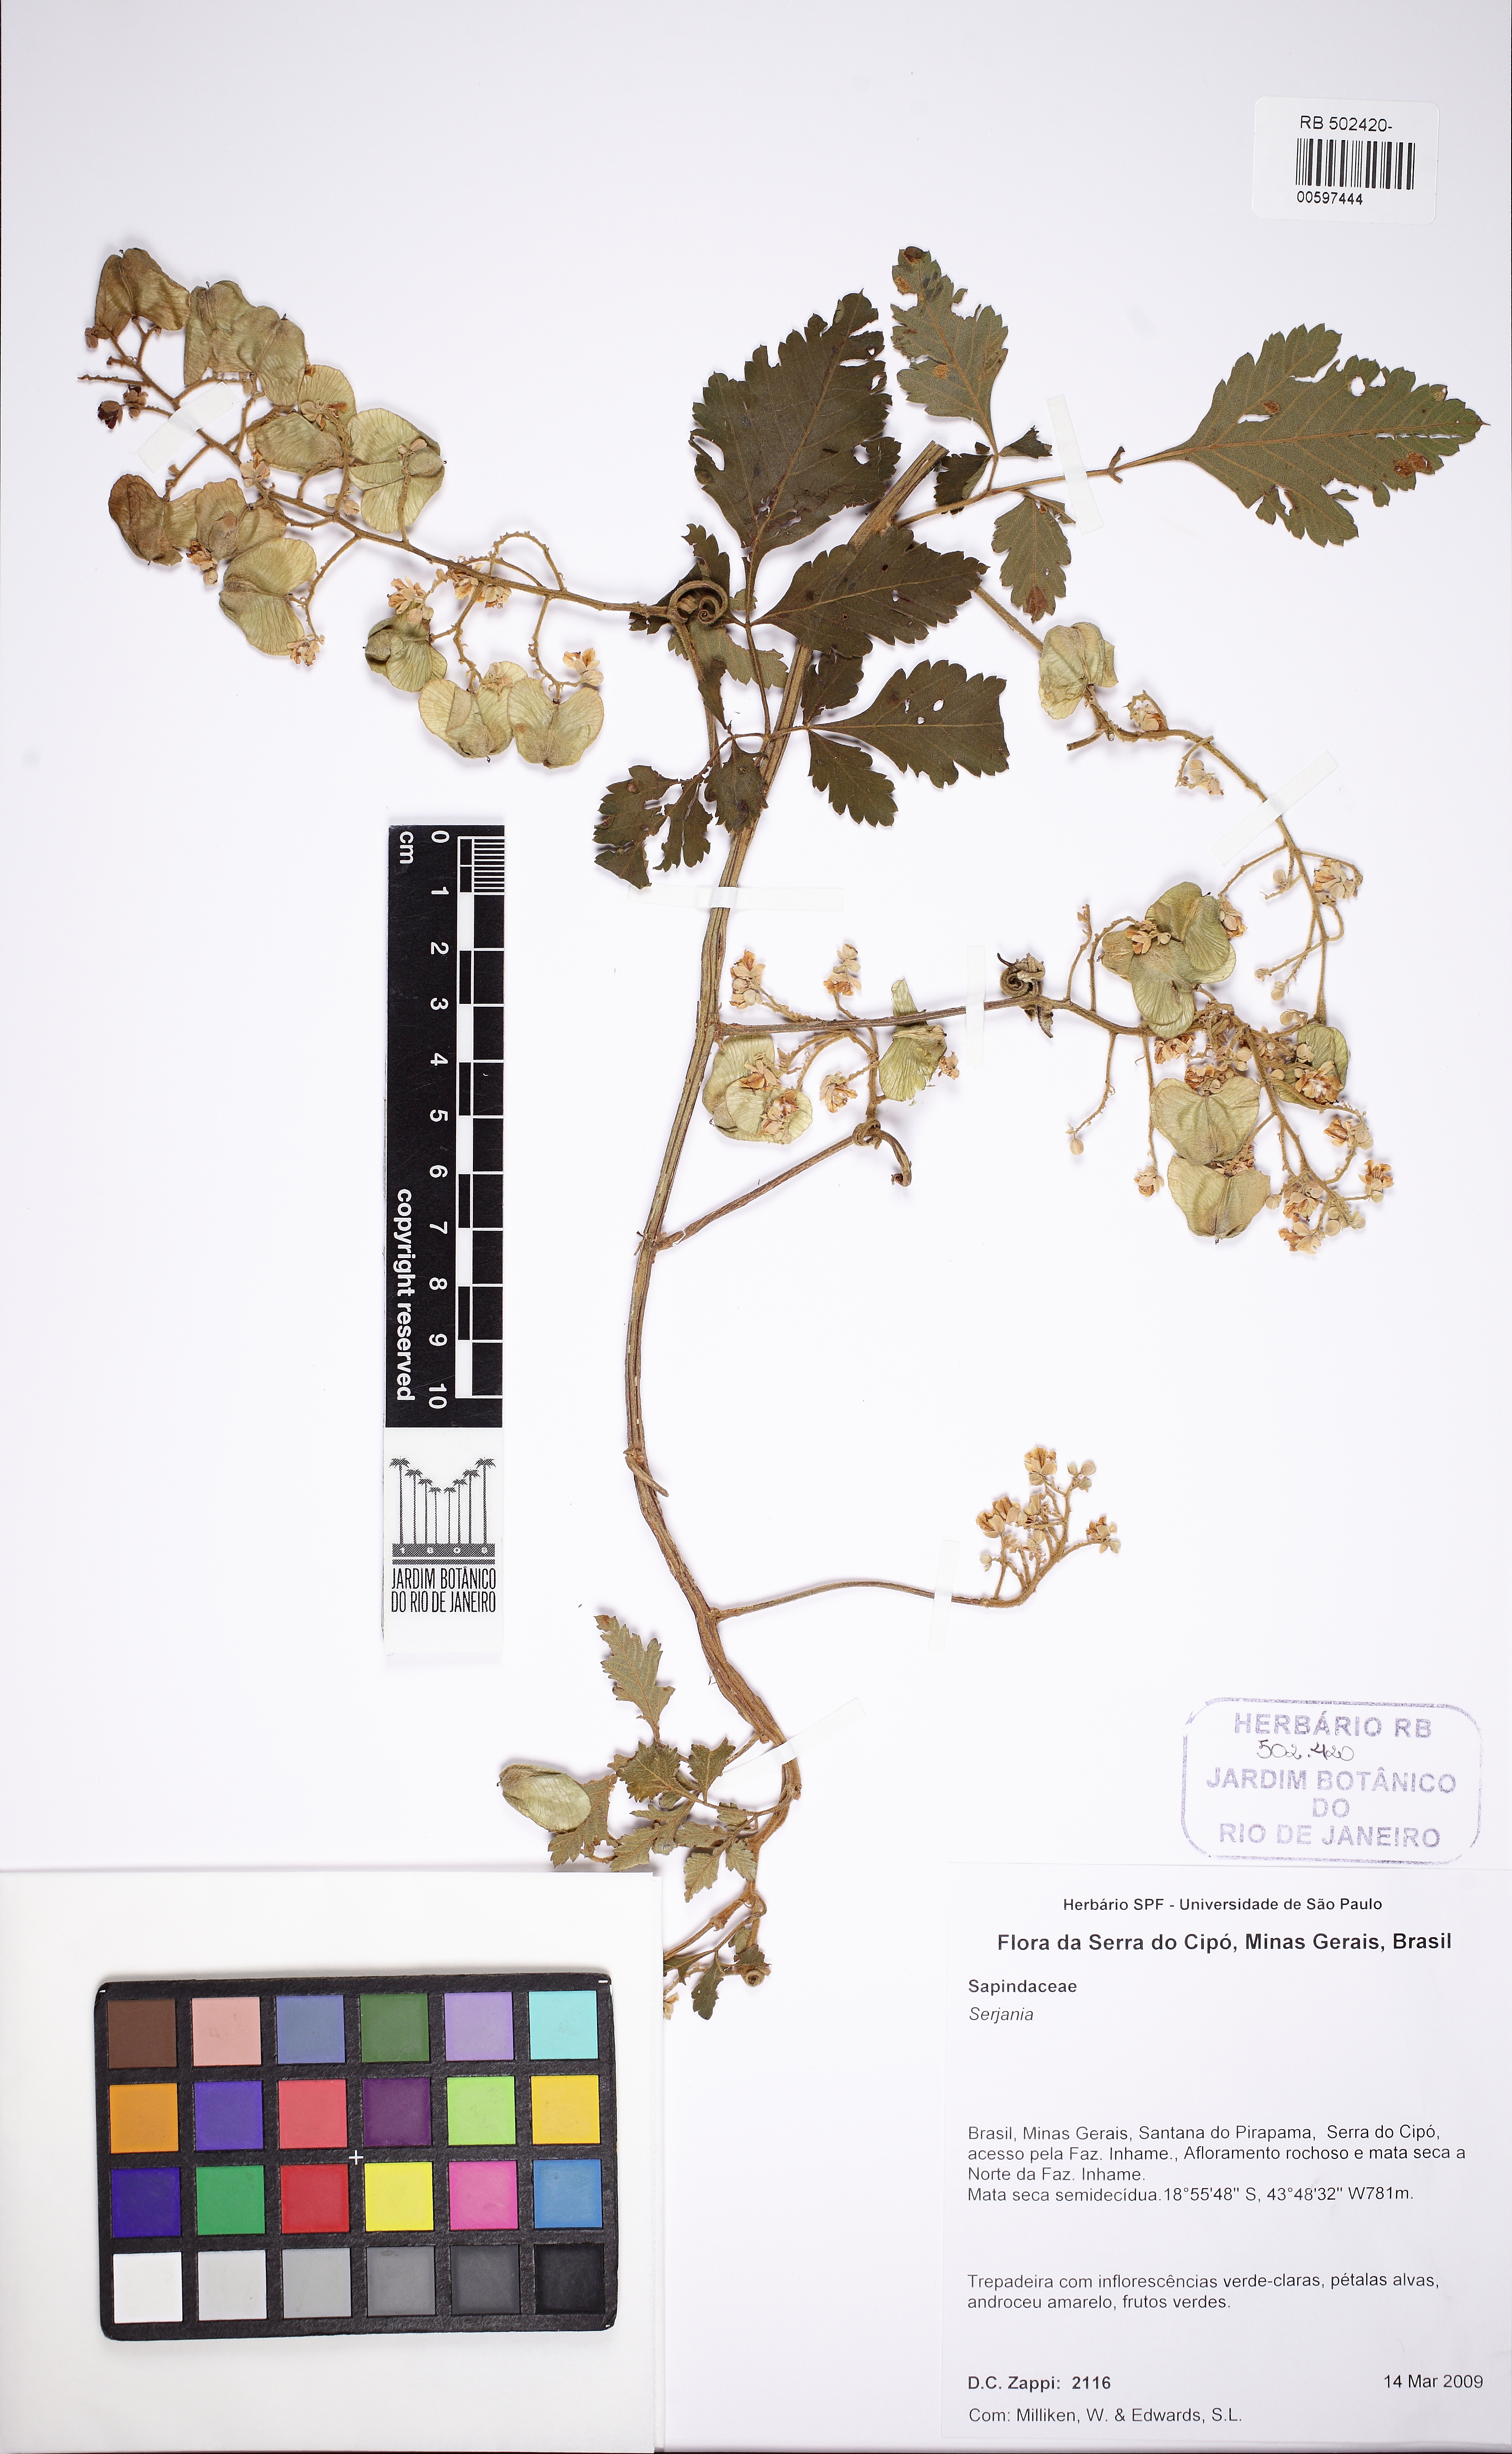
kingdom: Plantae
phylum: Tracheophyta
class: Magnoliopsida
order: Sapindales
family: Sapindaceae
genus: Serjania
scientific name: Serjania
